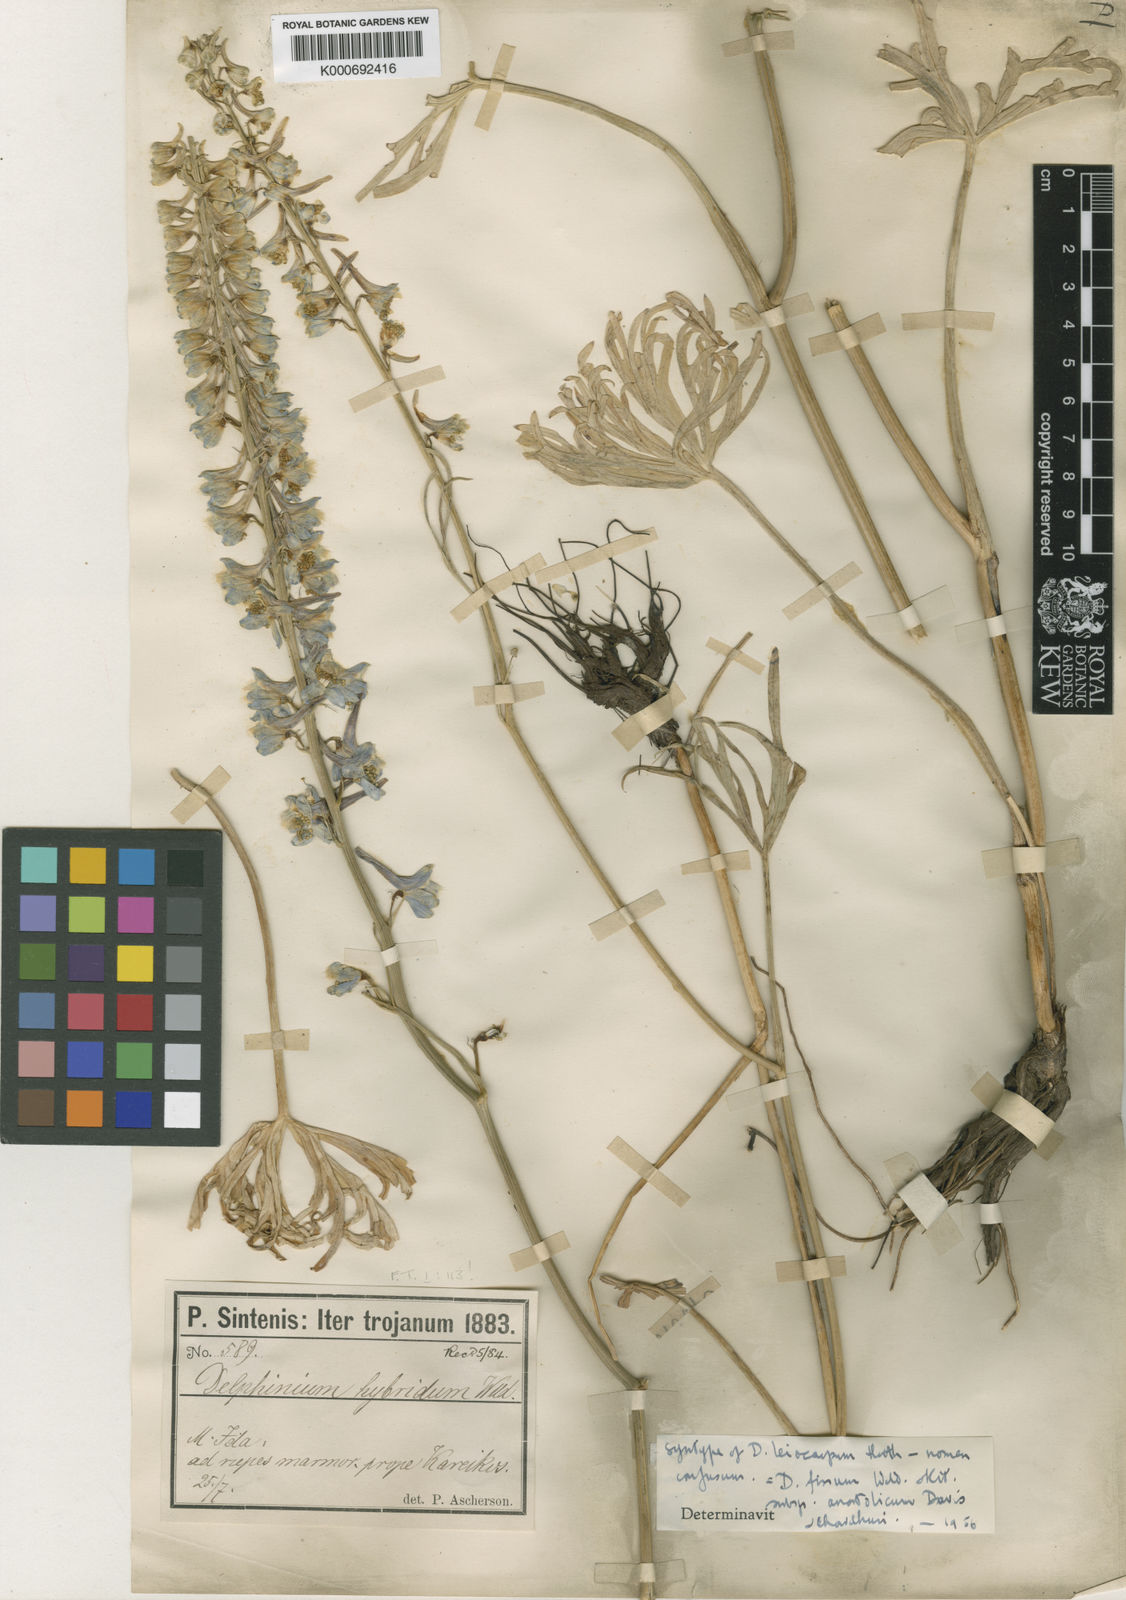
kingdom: Plantae
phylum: Tracheophyta
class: Magnoliopsida
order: Ranunculales
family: Ranunculaceae
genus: Delphinium
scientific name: Delphinium fissum
